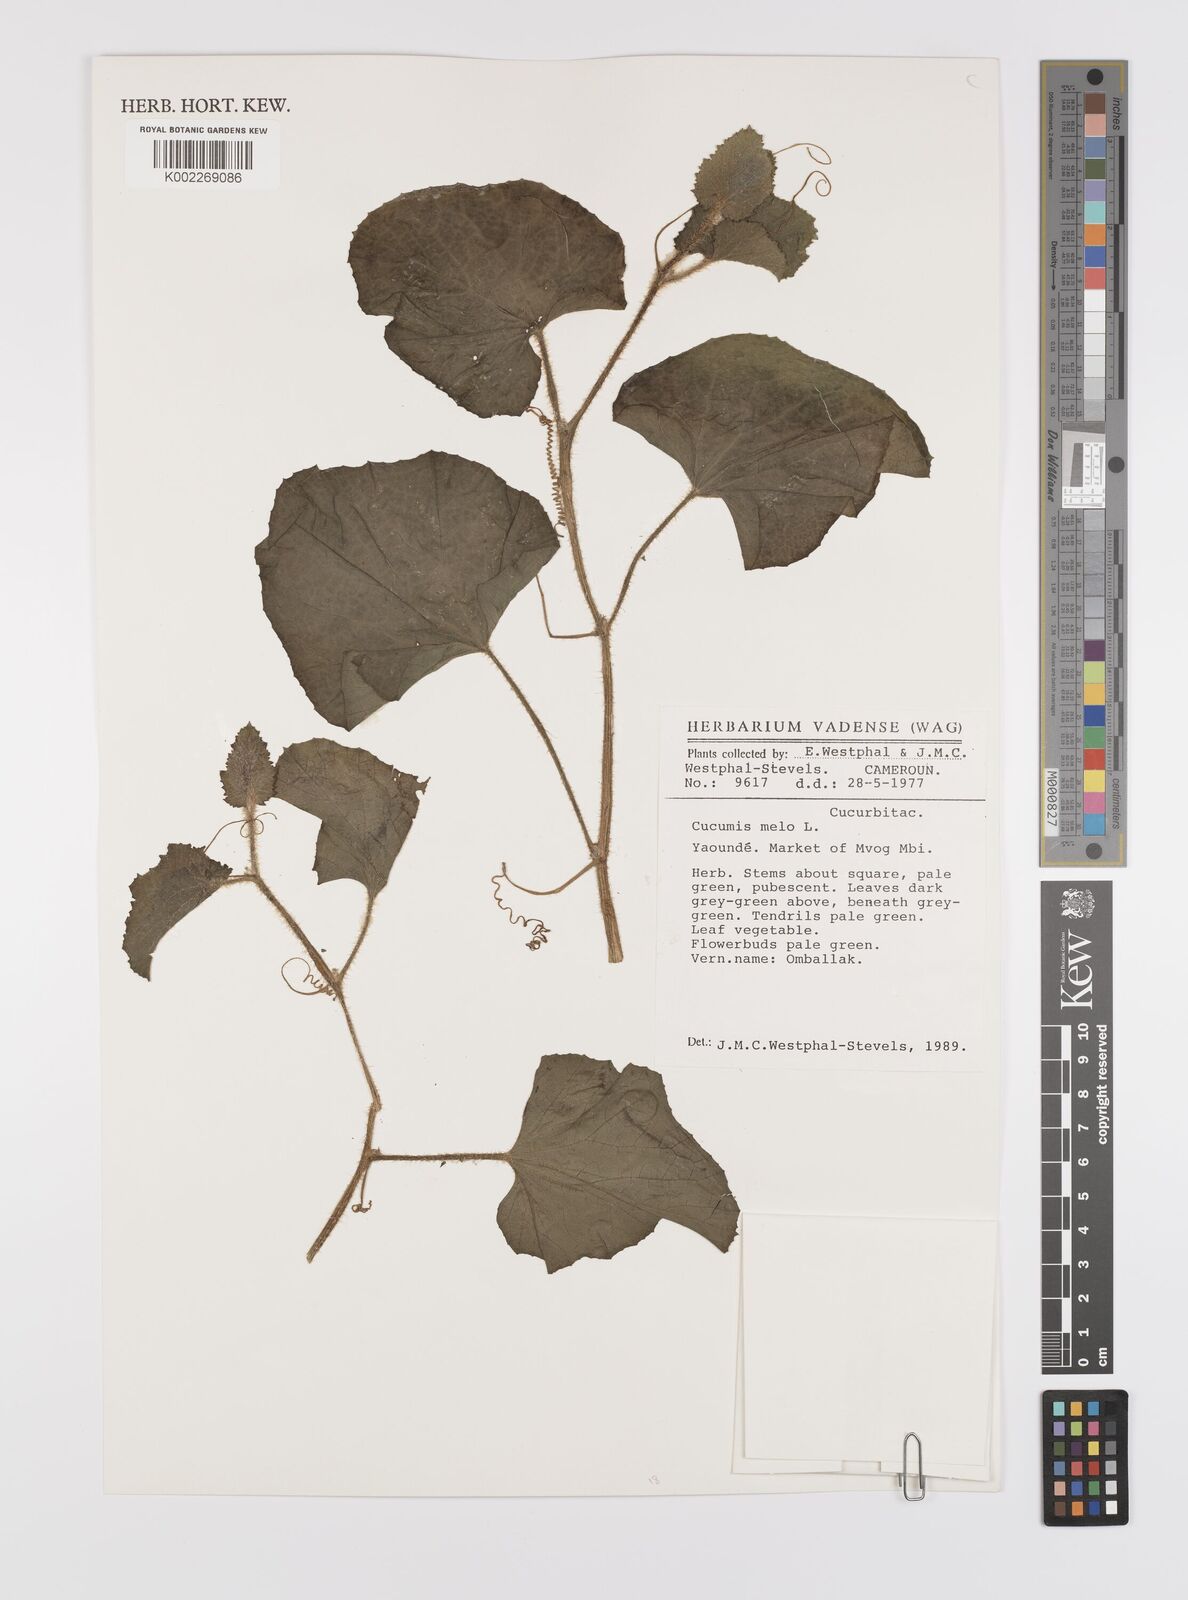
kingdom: Plantae
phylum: Tracheophyta
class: Magnoliopsida
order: Cucurbitales
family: Cucurbitaceae
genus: Cucumis
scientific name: Cucumis melo
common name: Melon
